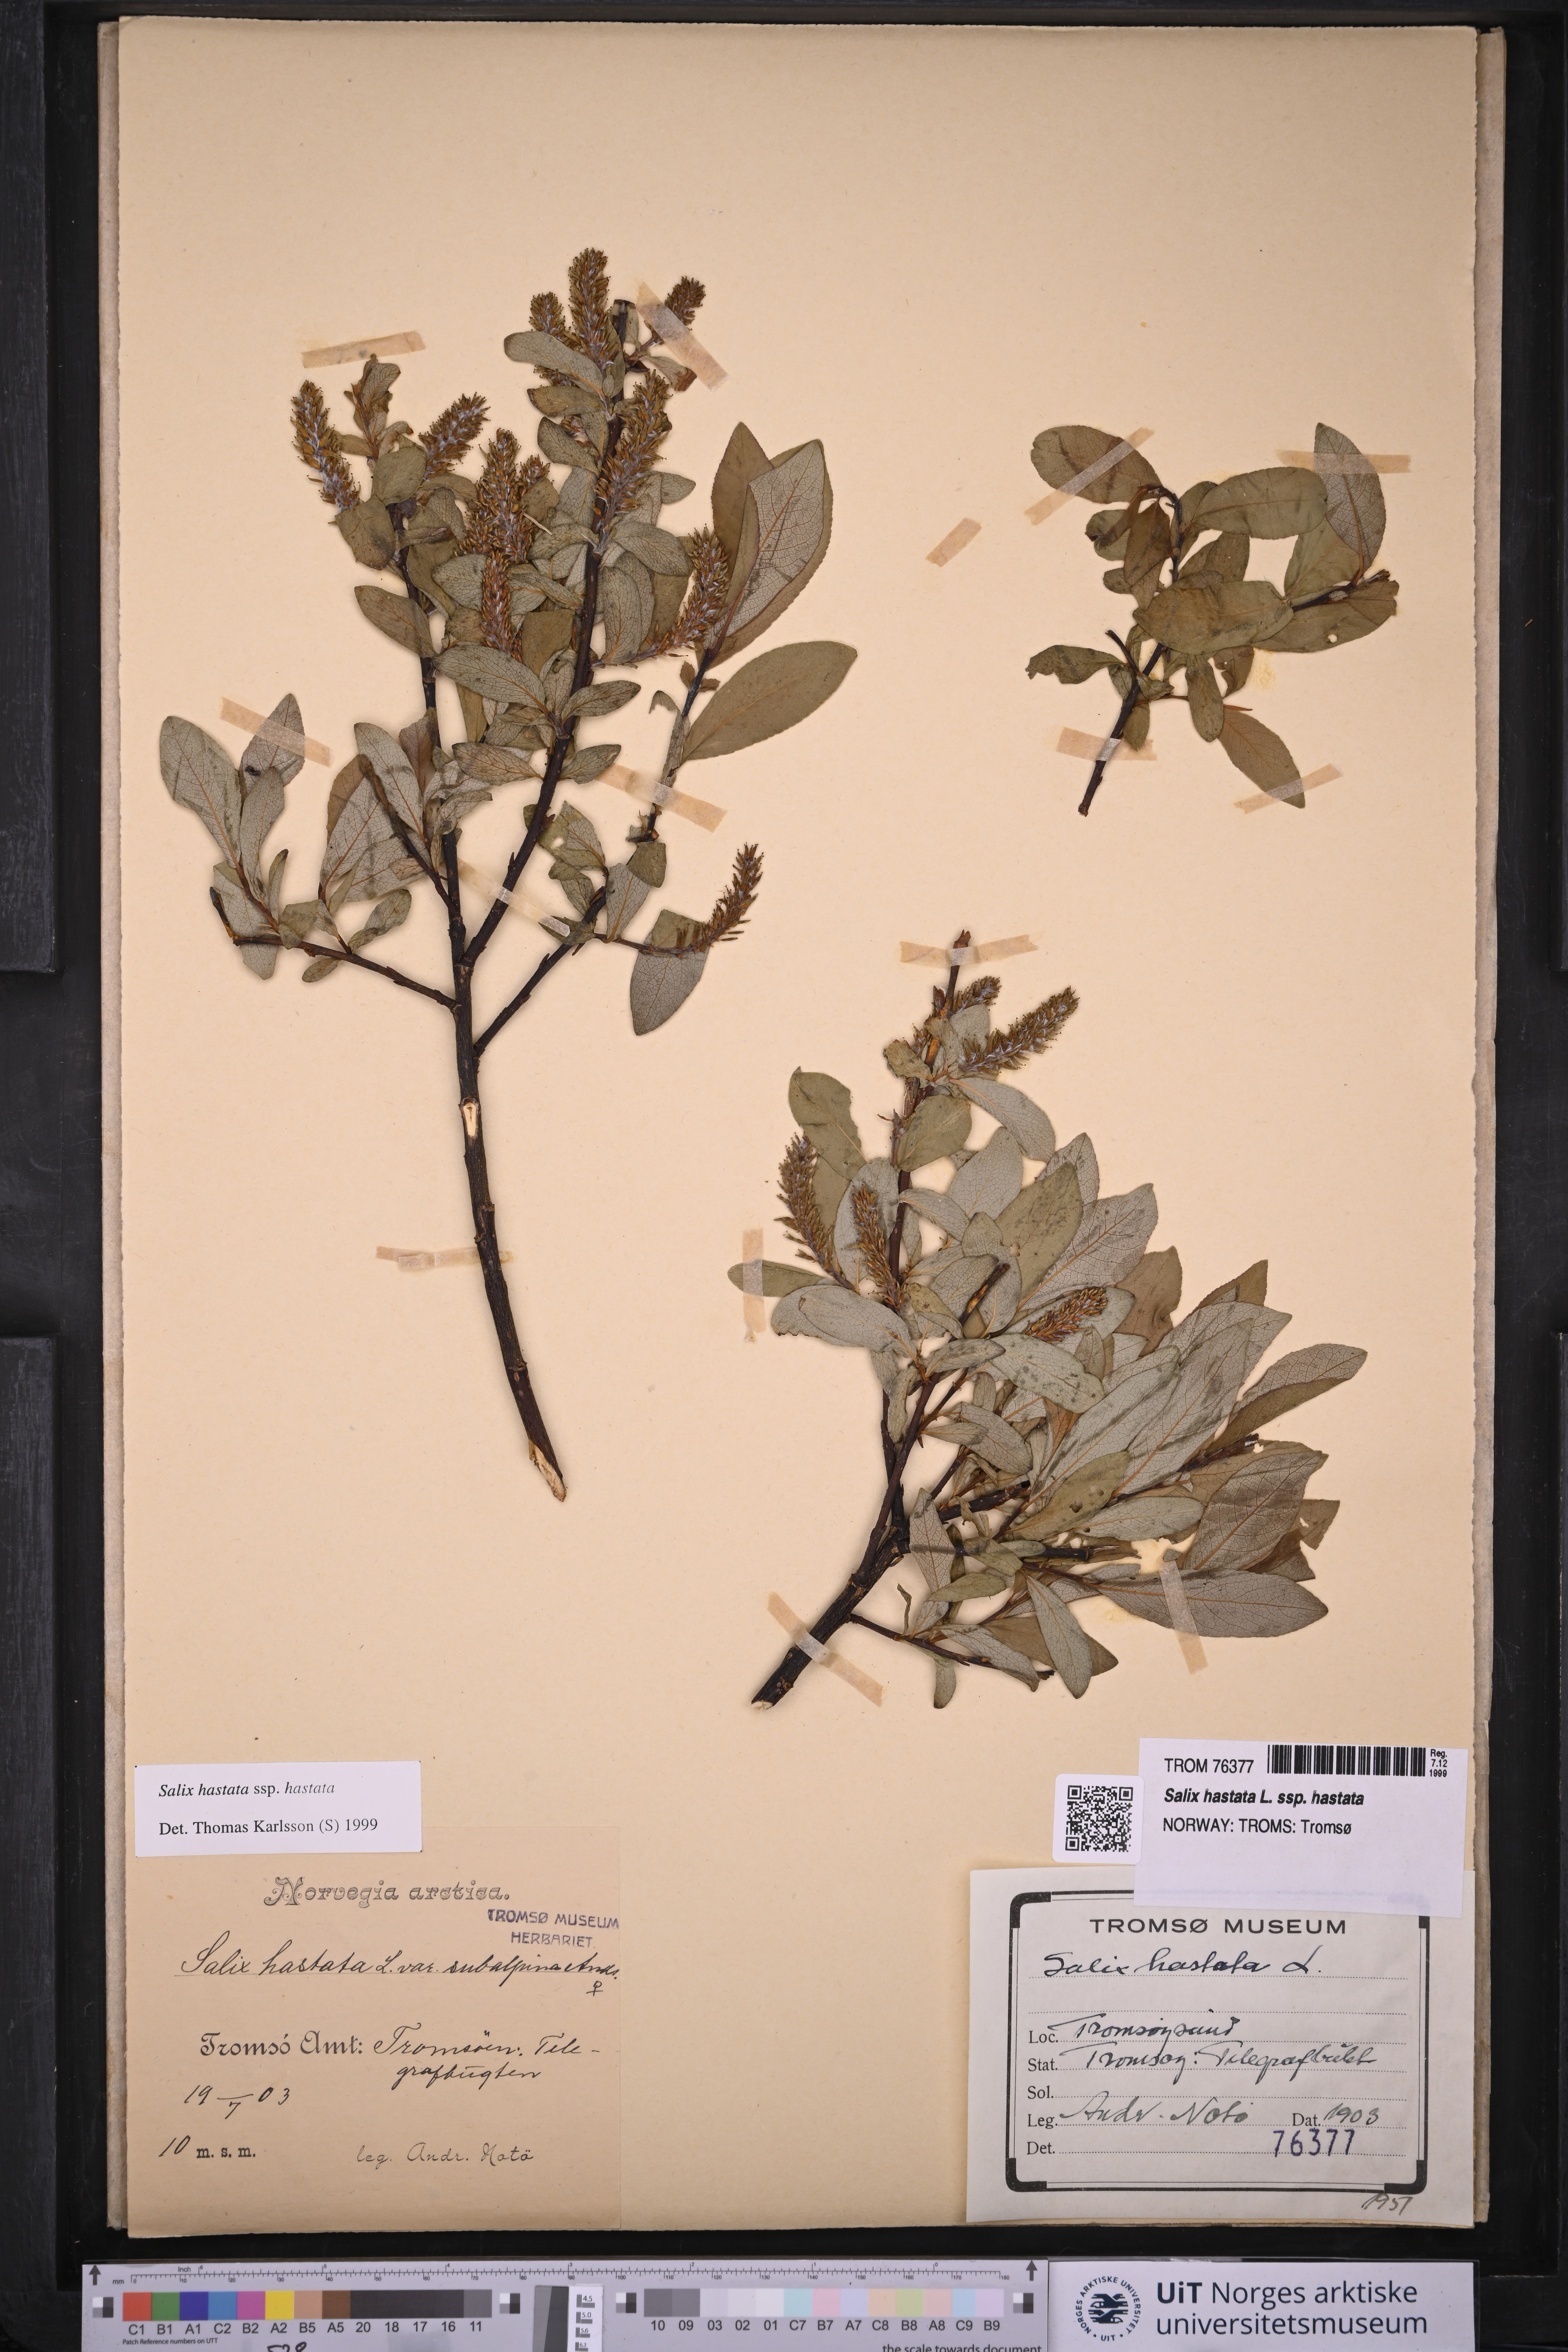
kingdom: Plantae
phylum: Tracheophyta
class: Magnoliopsida
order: Malpighiales
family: Salicaceae
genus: Salix
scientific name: Salix hastata
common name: Halberd willow
